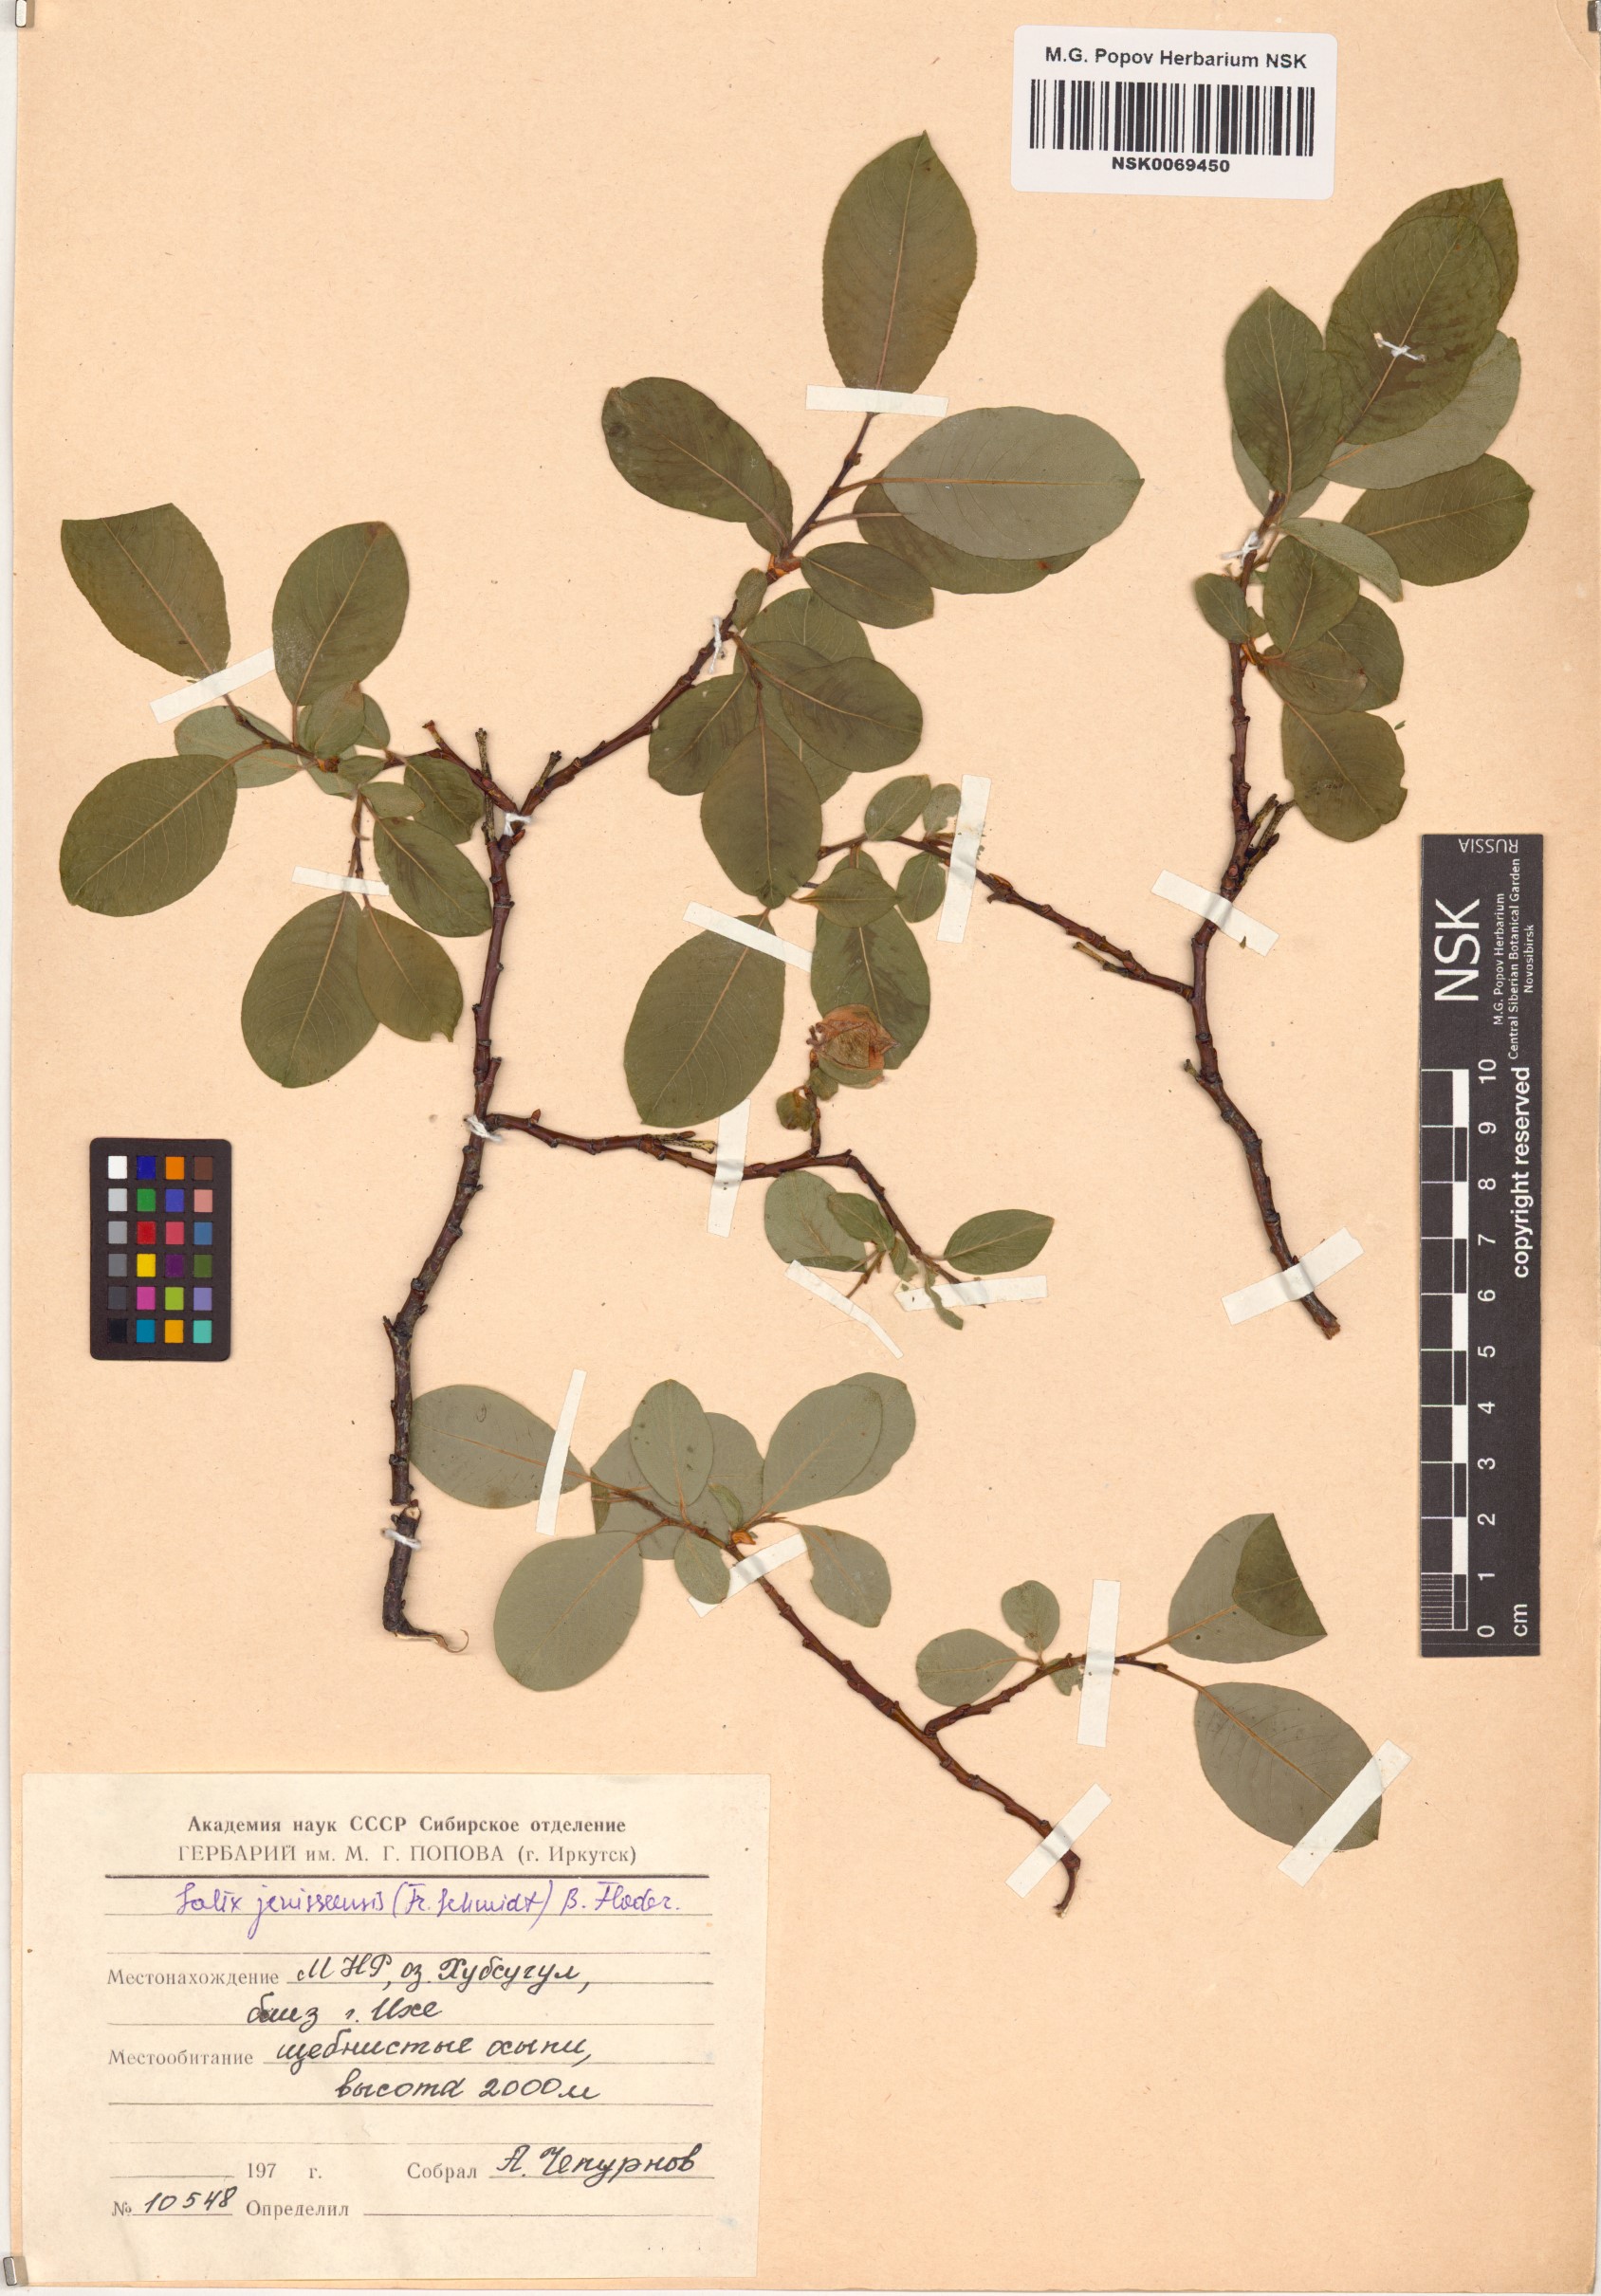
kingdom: Plantae
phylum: Tracheophyta
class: Magnoliopsida
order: Malpighiales
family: Salicaceae
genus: Salix
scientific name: Salix jenisseensis
